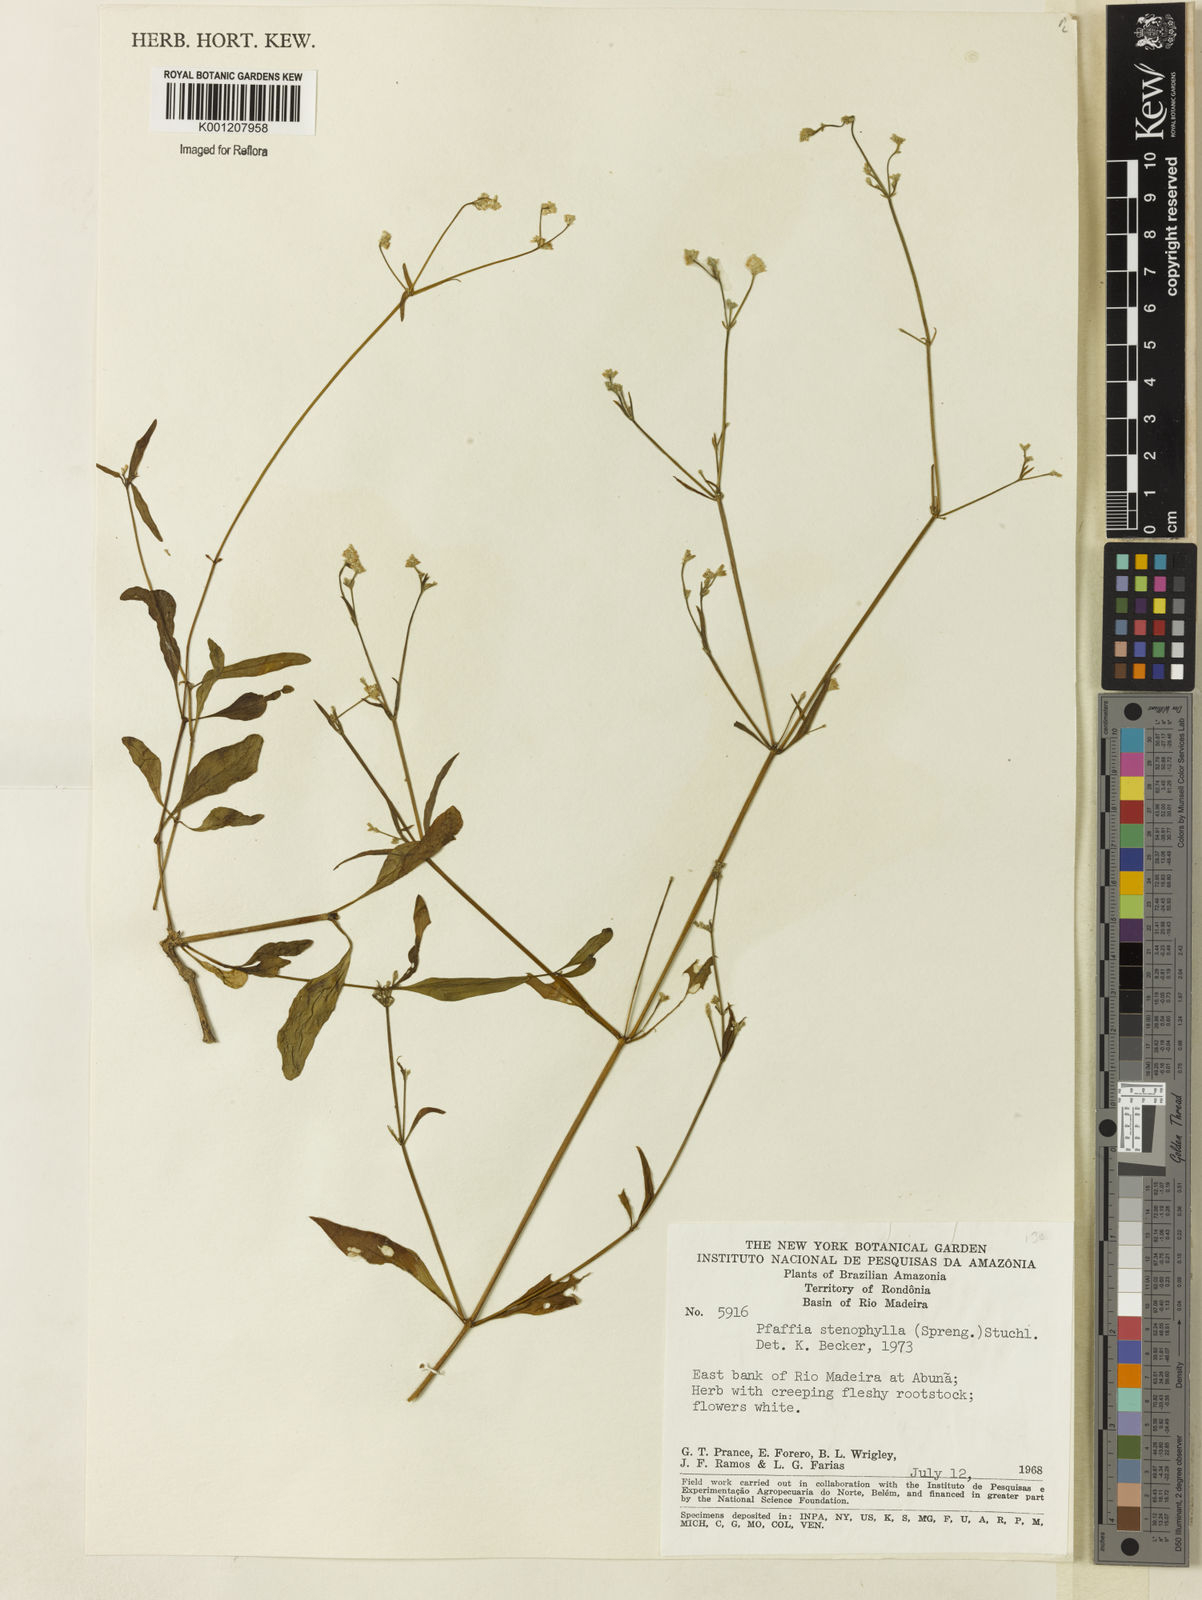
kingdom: Plantae
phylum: Tracheophyta
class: Magnoliopsida
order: Caryophyllales
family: Amaranthaceae
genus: Pfaffia
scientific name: Pfaffia
